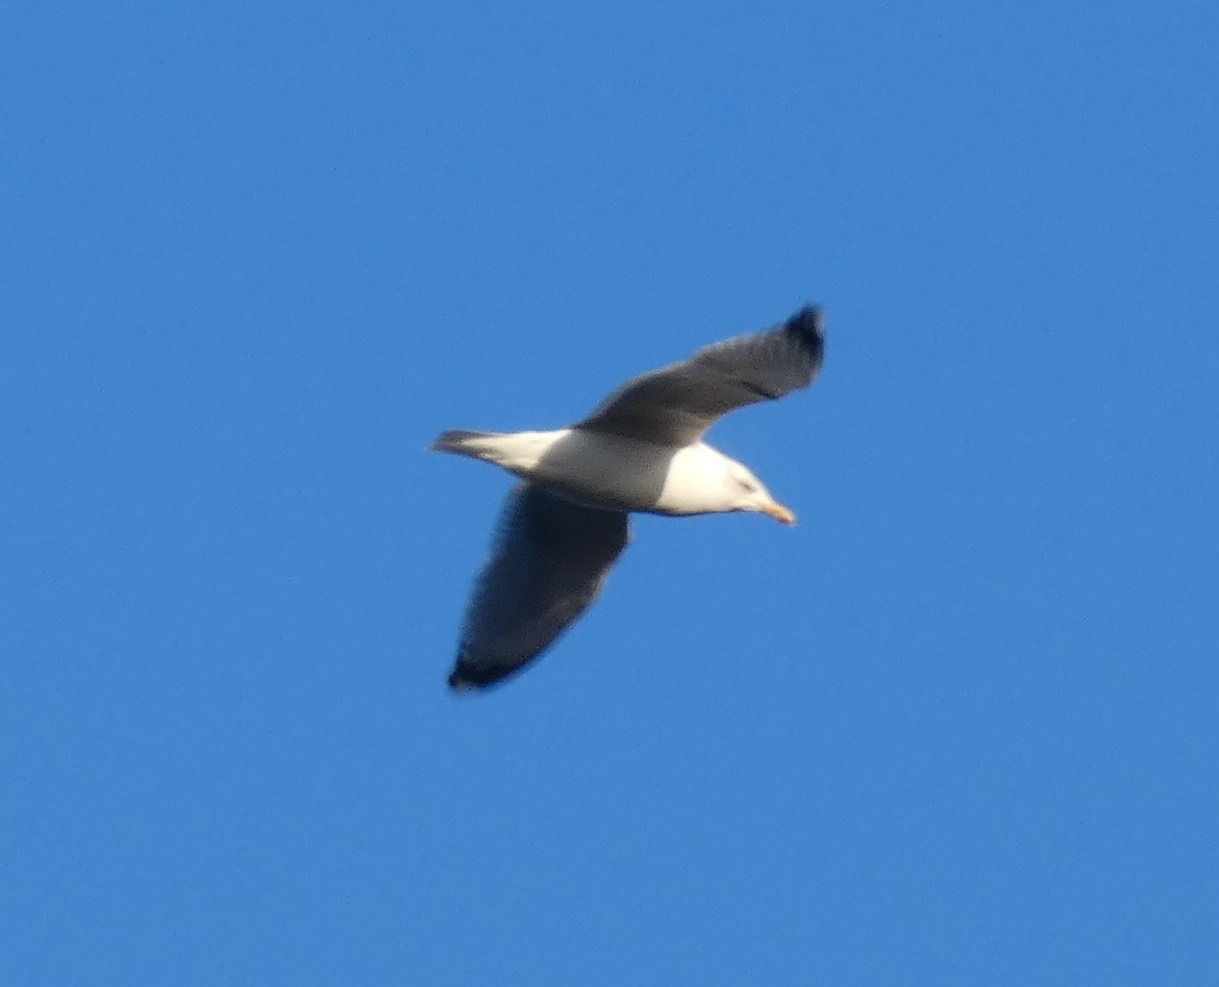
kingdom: Animalia
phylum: Chordata
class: Aves
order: Charadriiformes
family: Laridae
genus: Larus
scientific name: Larus argentatus
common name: Sølvmåge
